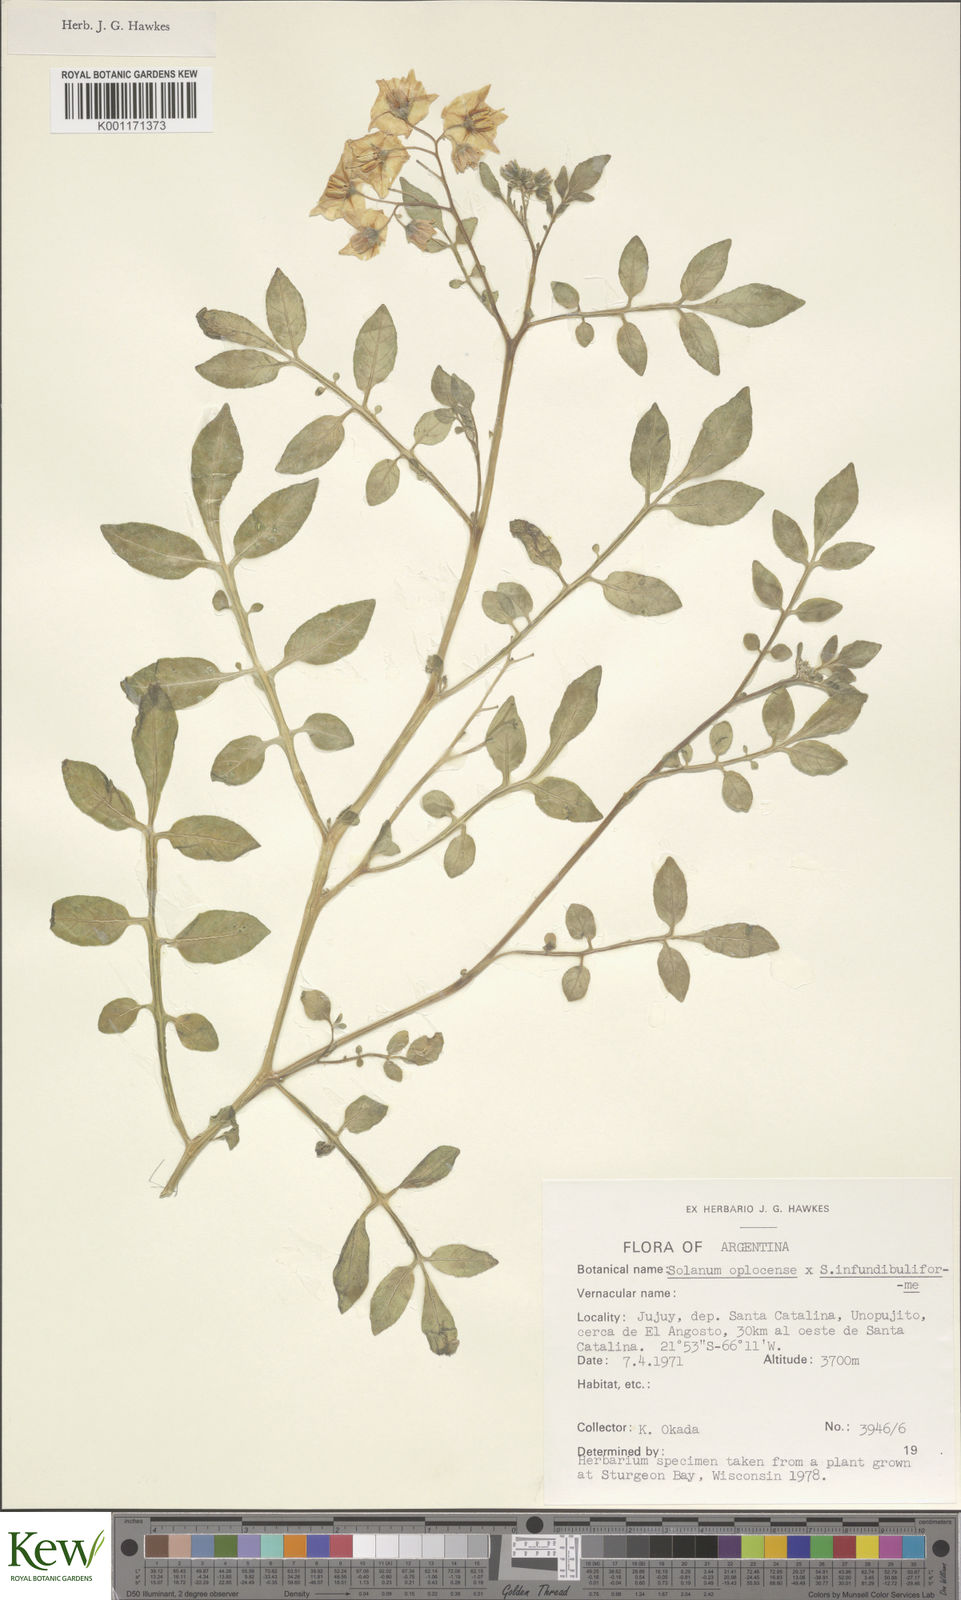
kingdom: Plantae
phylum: Tracheophyta
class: Magnoliopsida
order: Solanales
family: Solanaceae
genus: Solanum
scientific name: Solanum brevicaule
